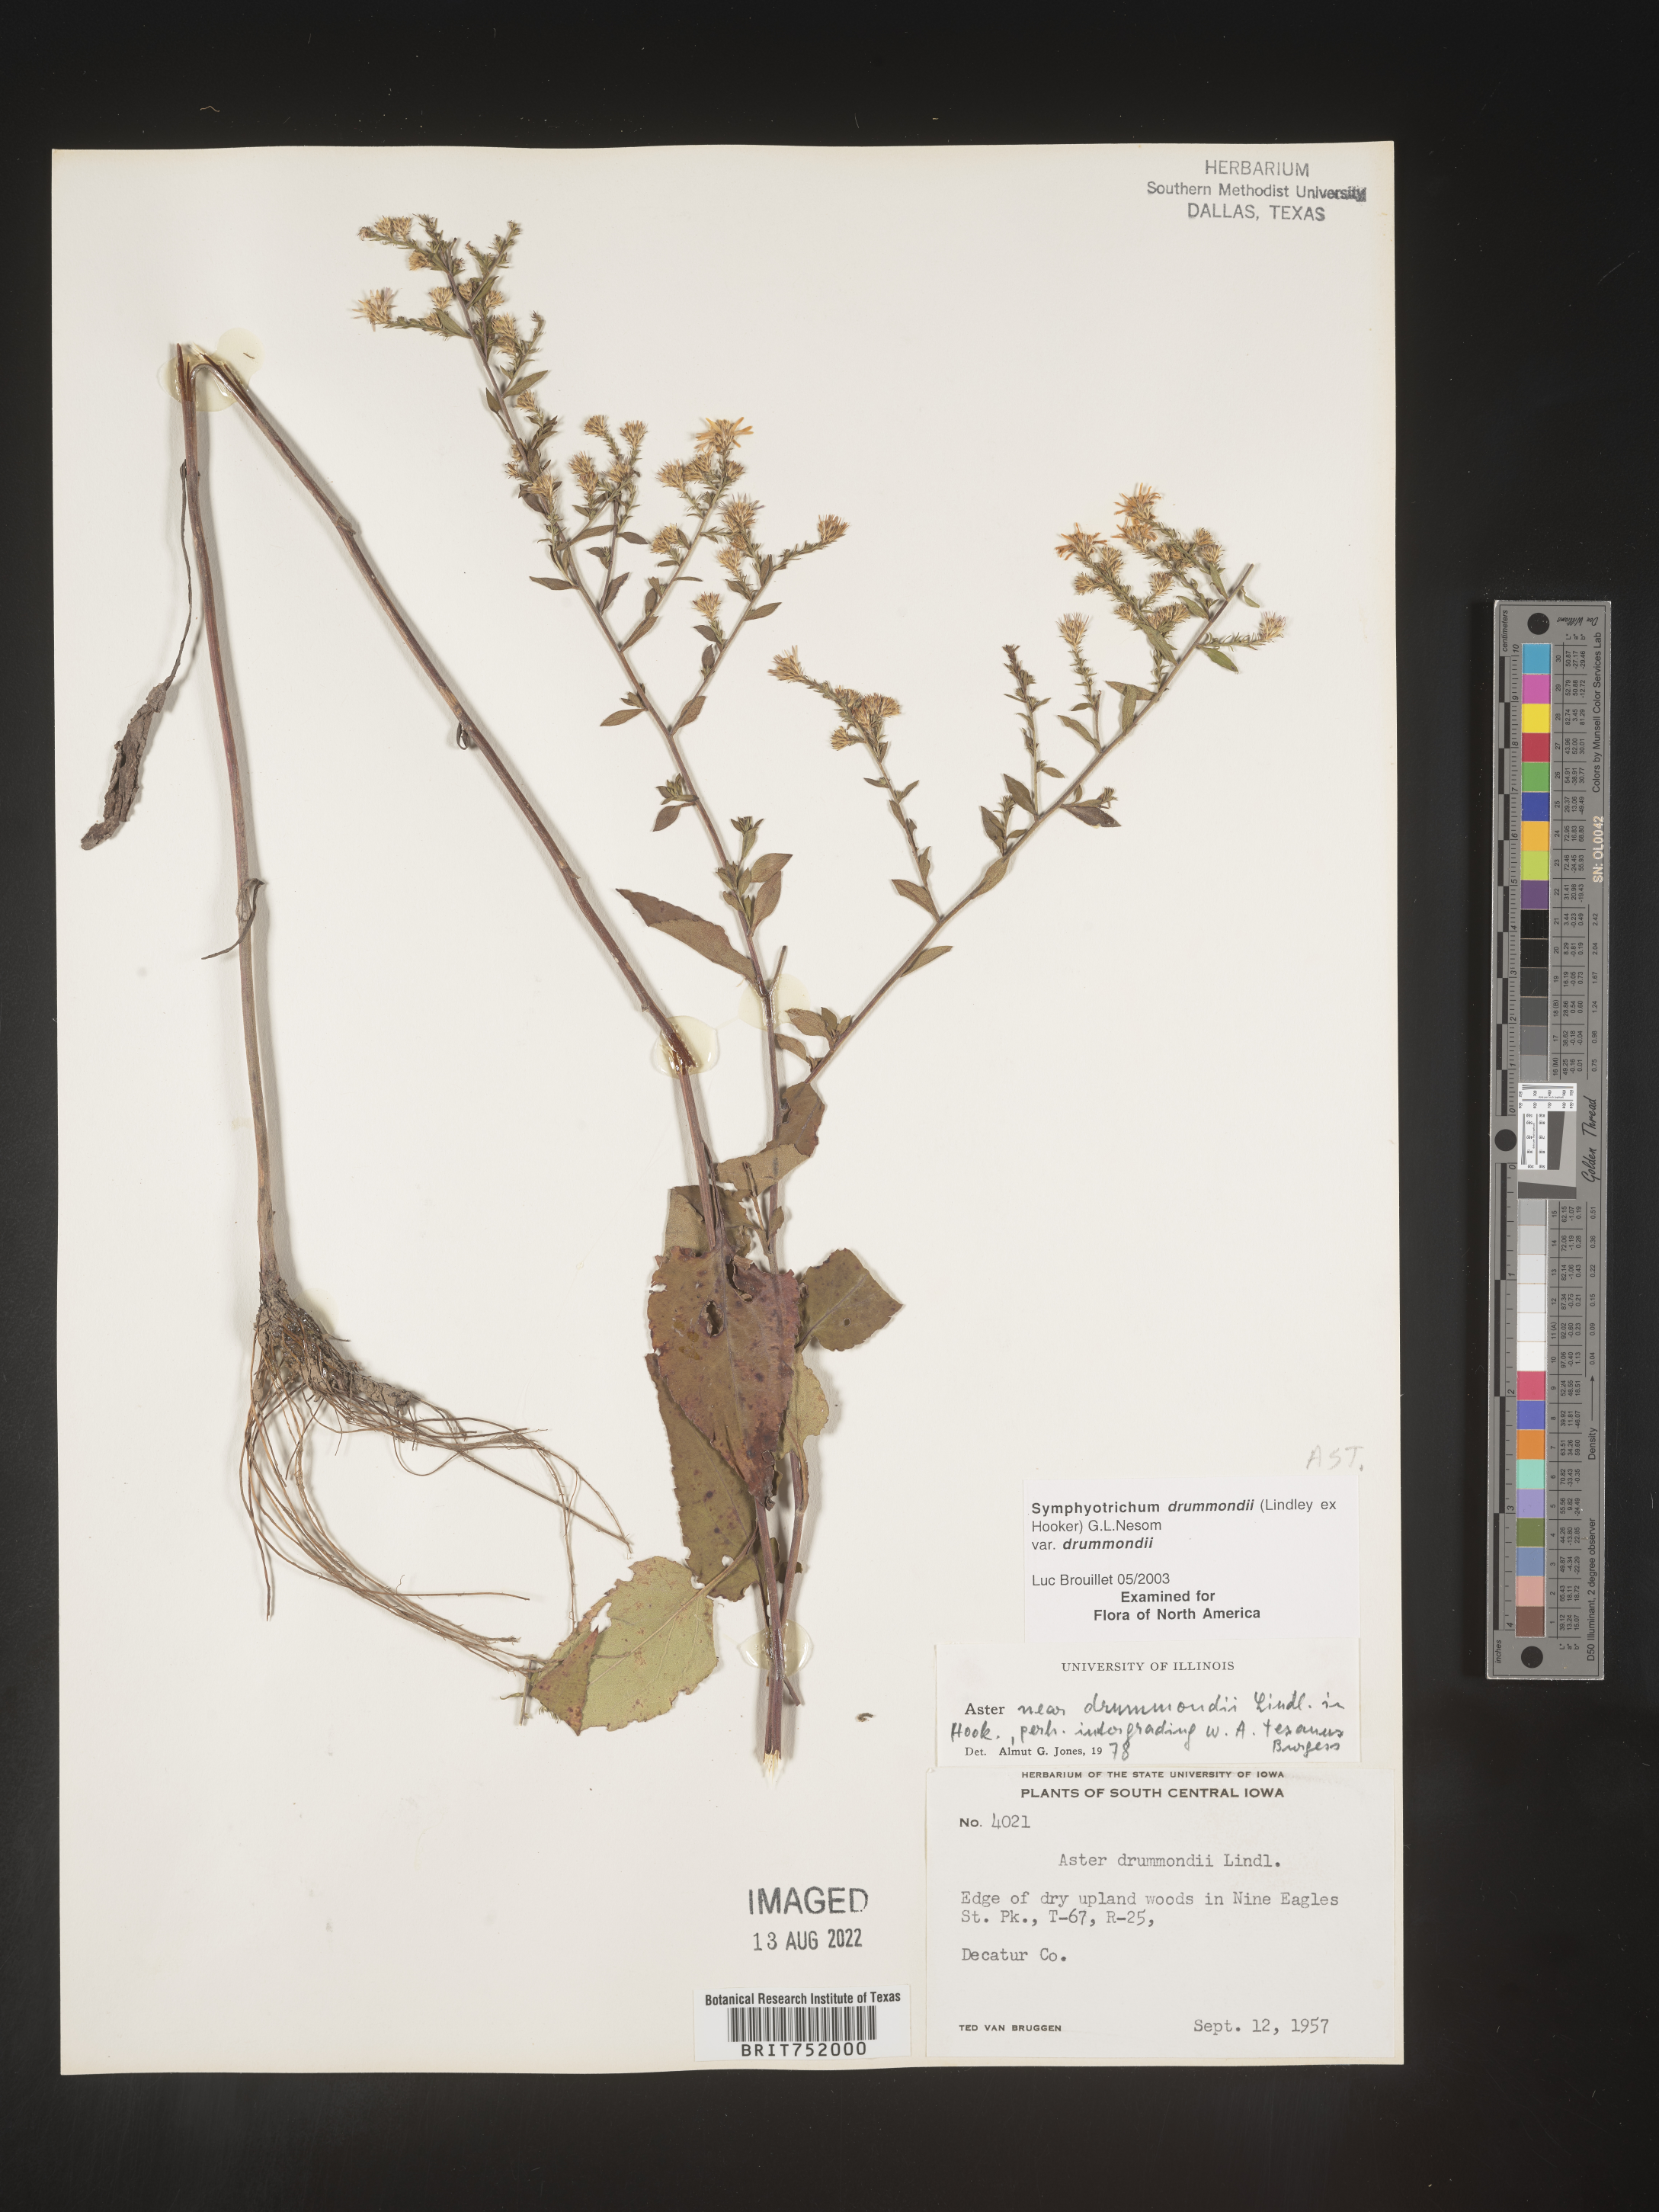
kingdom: Plantae
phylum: Tracheophyta
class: Magnoliopsida
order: Asterales
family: Asteraceae
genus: Symphyotrichum
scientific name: Symphyotrichum drummondii
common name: Drummond's aster
